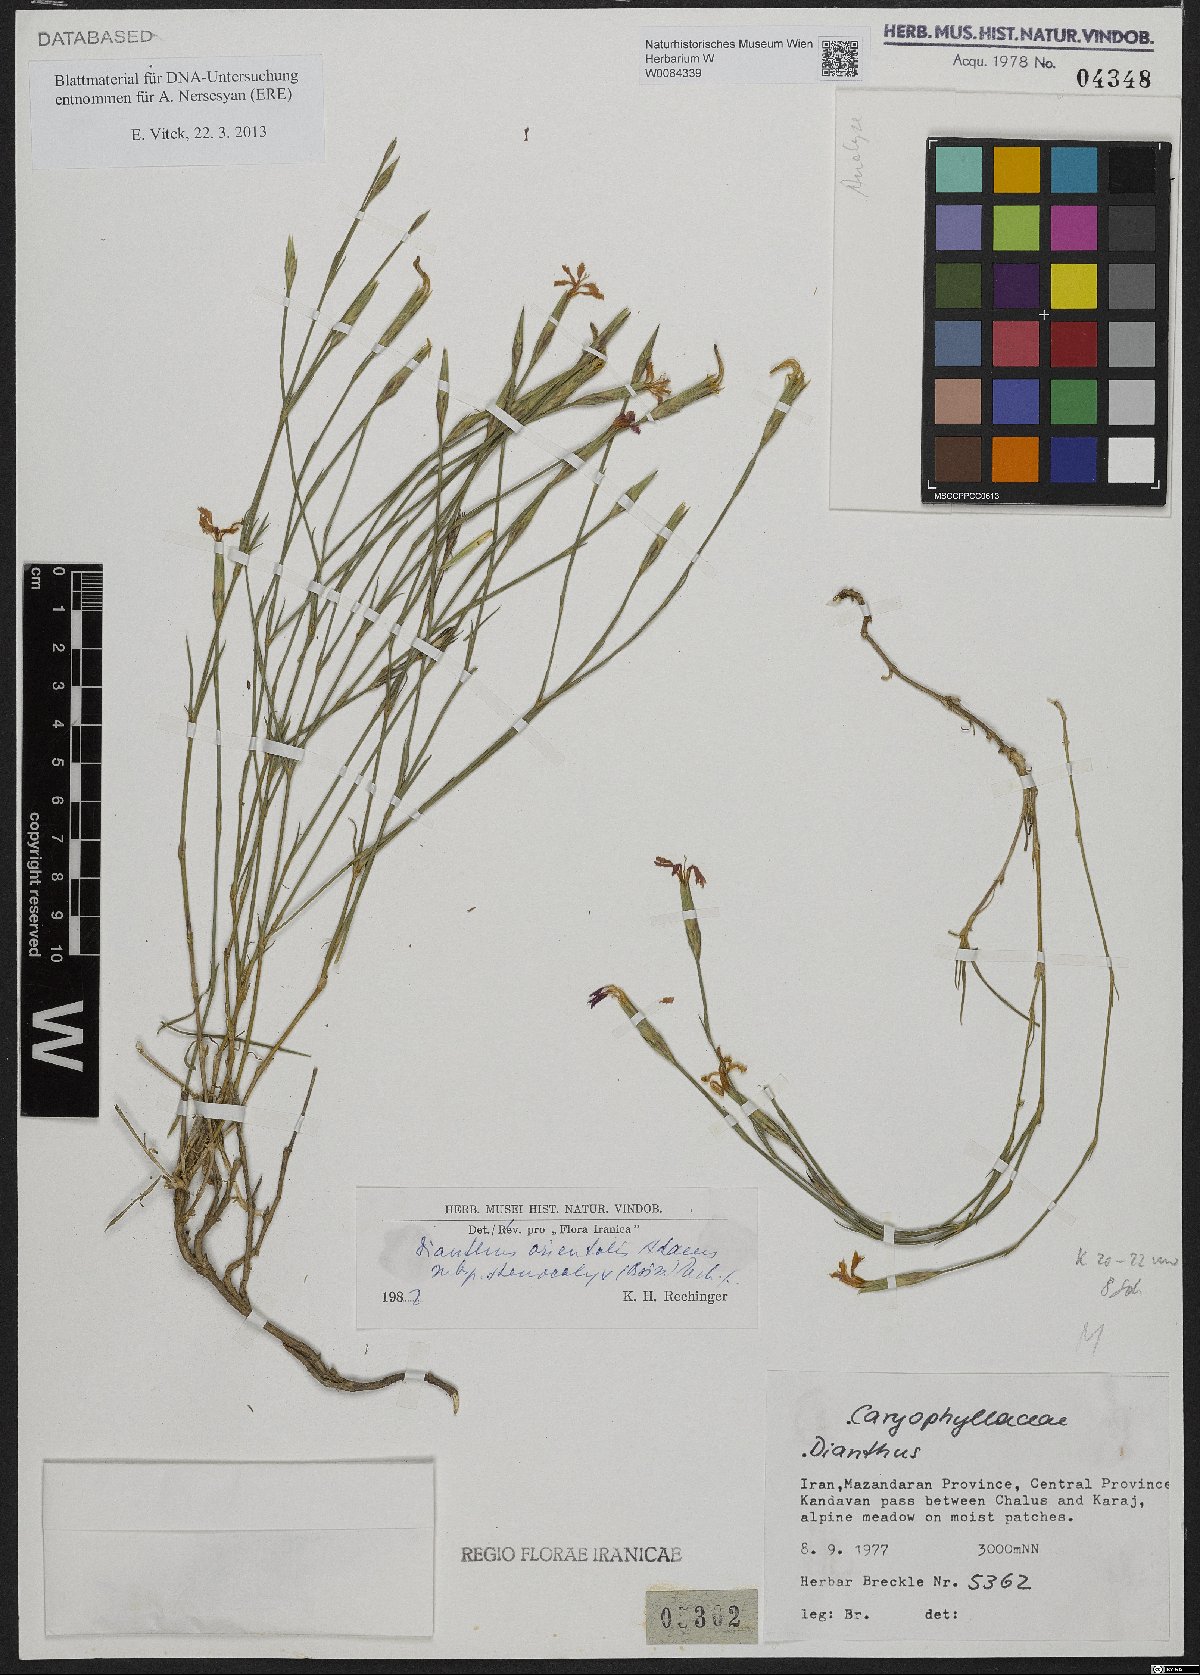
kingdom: Plantae
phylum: Tracheophyta
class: Magnoliopsida
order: Caryophyllales
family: Caryophyllaceae
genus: Dianthus
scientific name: Dianthus orientalis
